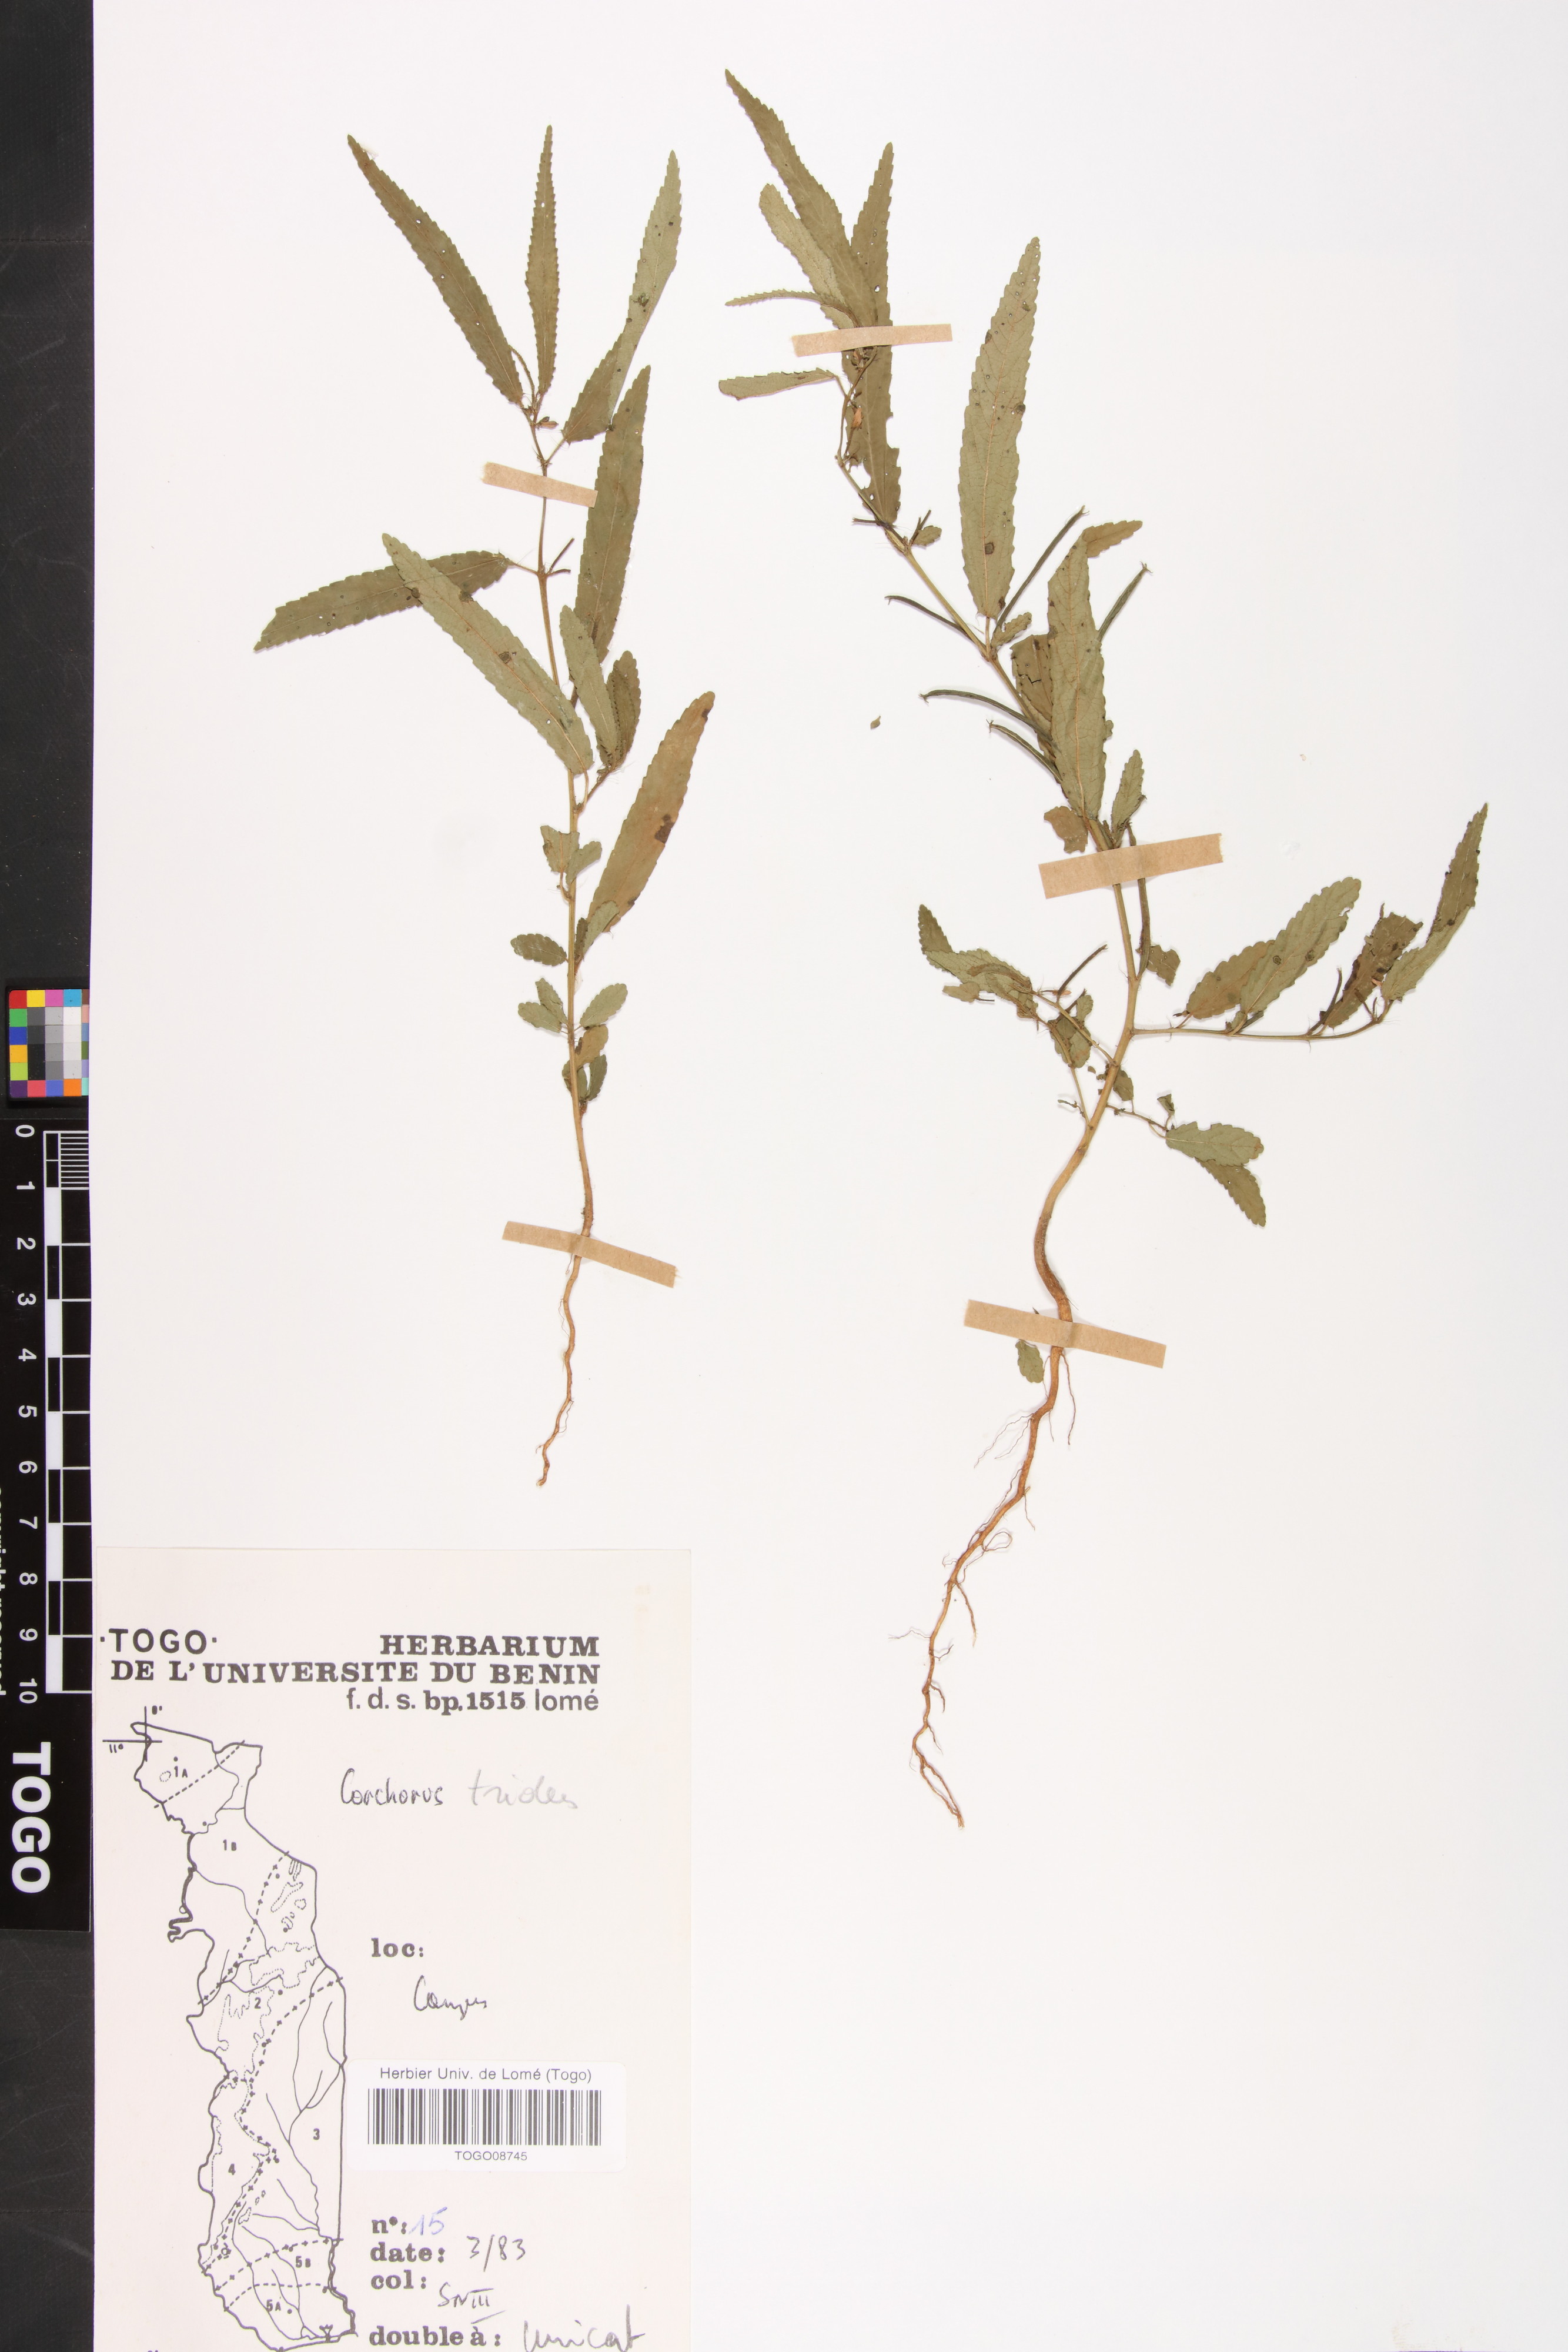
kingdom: Plantae
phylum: Tracheophyta
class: Magnoliopsida
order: Malvales
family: Malvaceae
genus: Corchorus
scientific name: Corchorus tridens
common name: Wild jute
